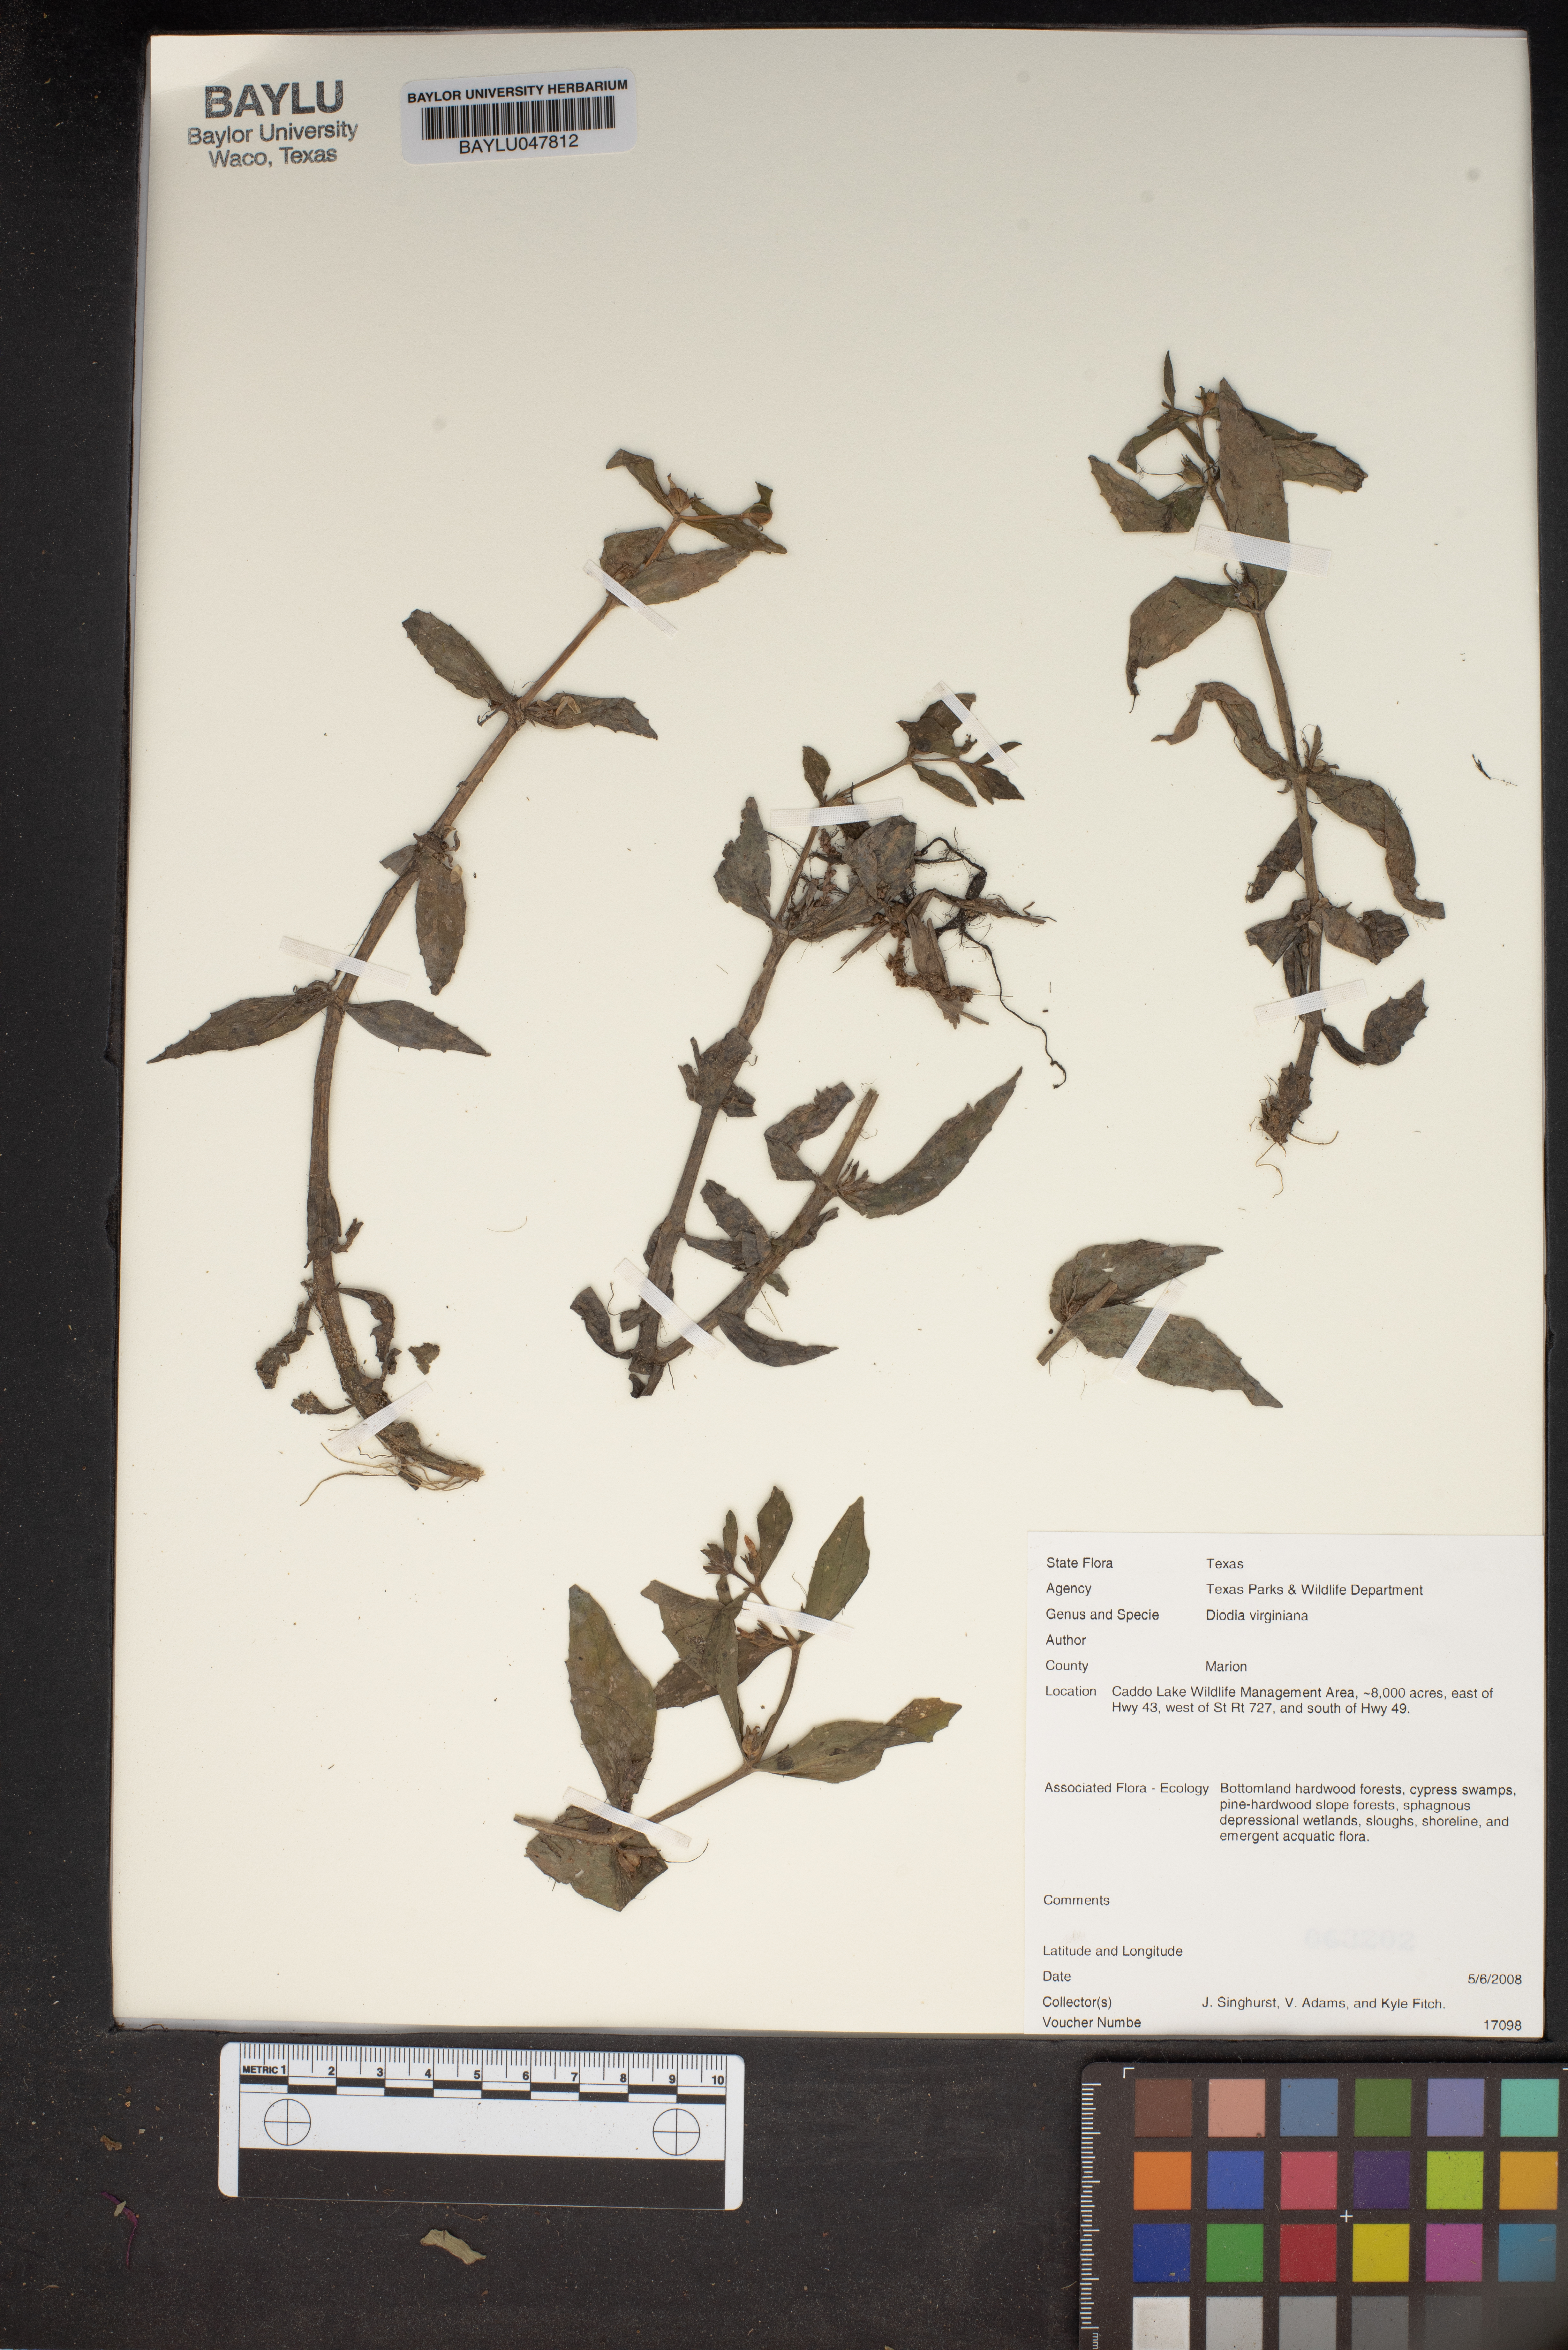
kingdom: Plantae
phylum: Tracheophyta
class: Magnoliopsida
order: Gentianales
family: Rubiaceae
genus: Diodia
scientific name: Diodia virginiana
